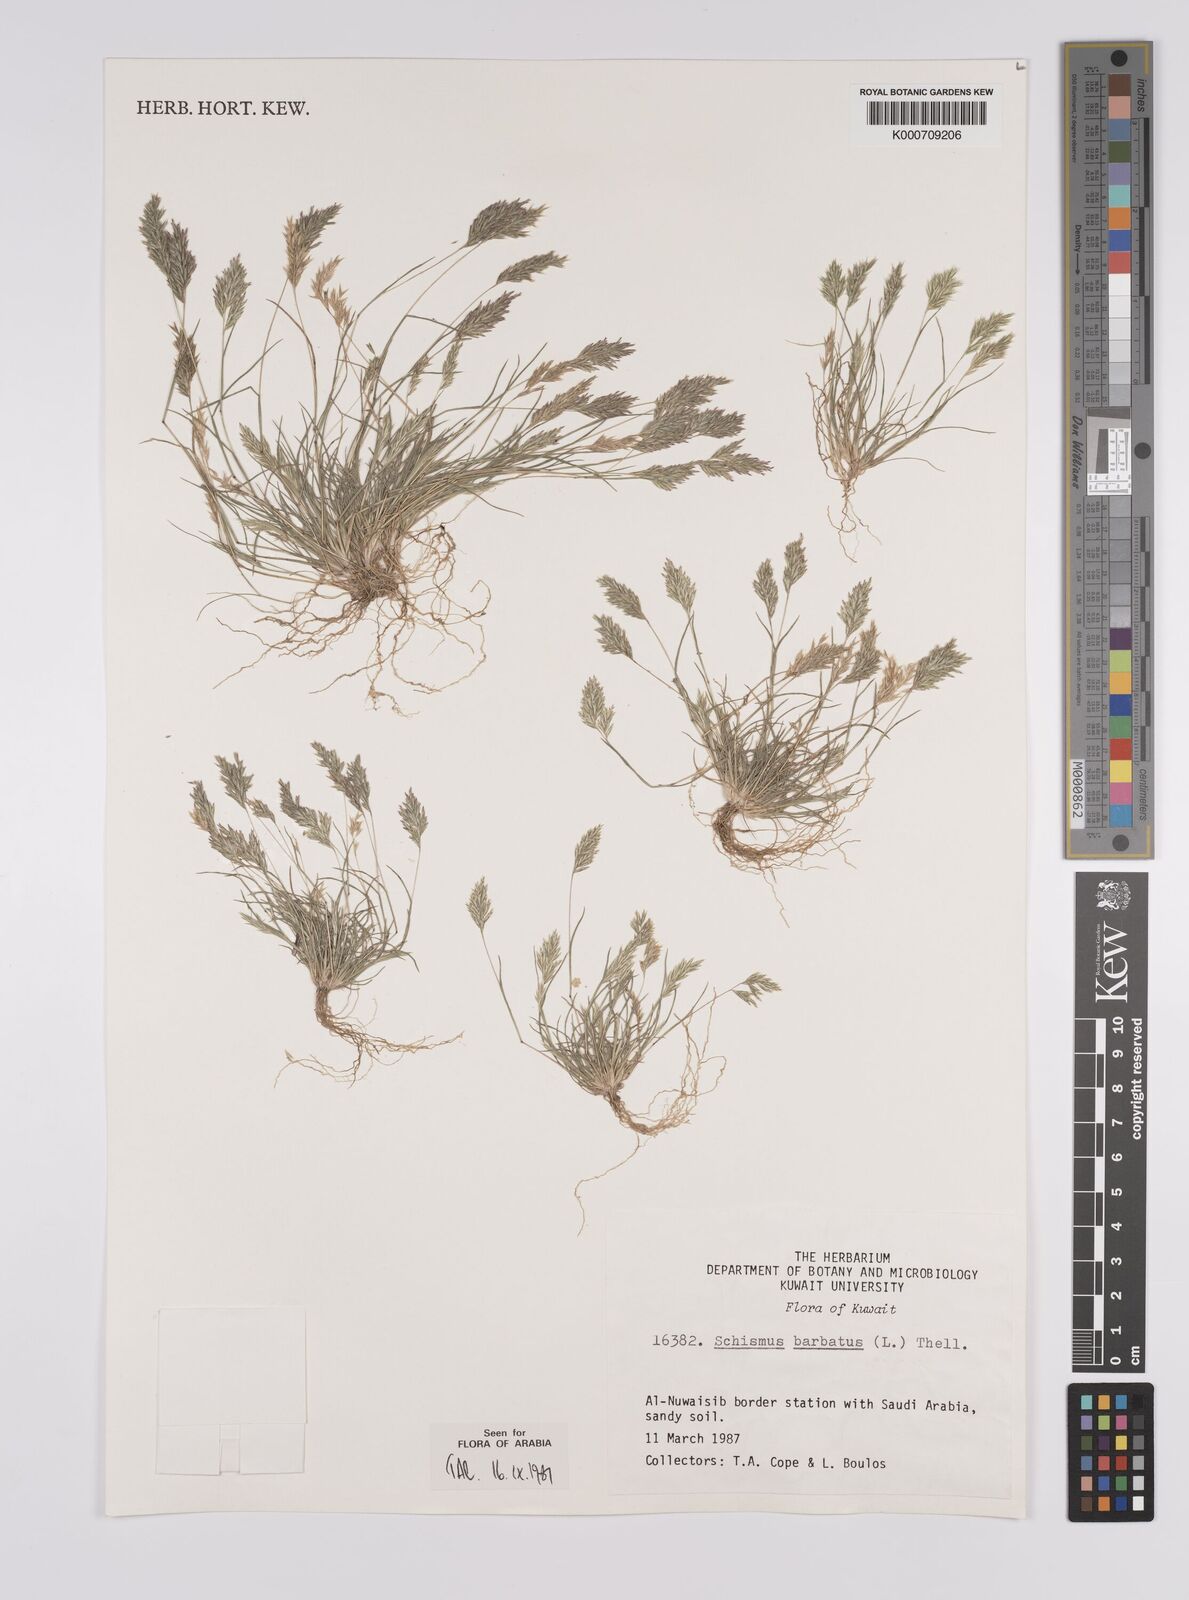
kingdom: Plantae
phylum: Tracheophyta
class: Liliopsida
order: Poales
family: Poaceae
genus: Schismus
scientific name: Schismus barbatus
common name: Kelch-grass
